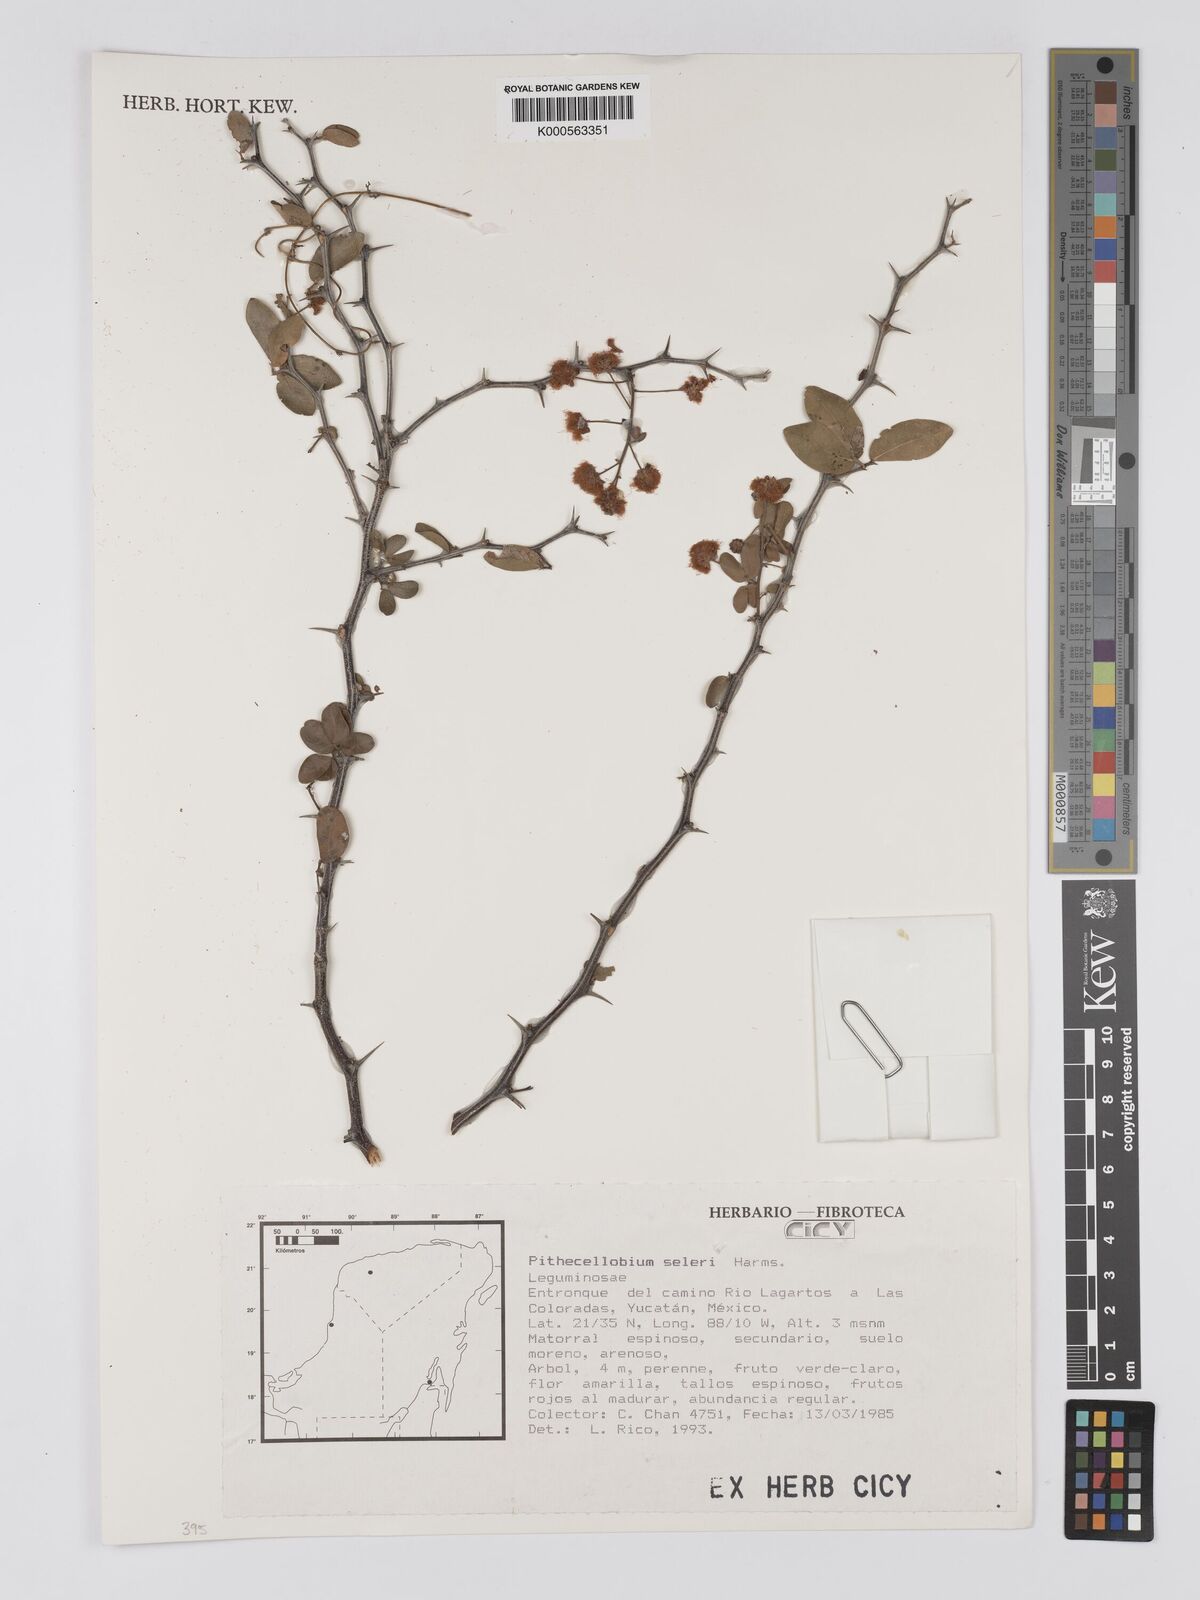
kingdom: Plantae
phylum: Tracheophyta
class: Magnoliopsida
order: Fabales
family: Fabaceae
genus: Pithecellobium
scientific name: Pithecellobium unguis-cati
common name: Cat's-claw
